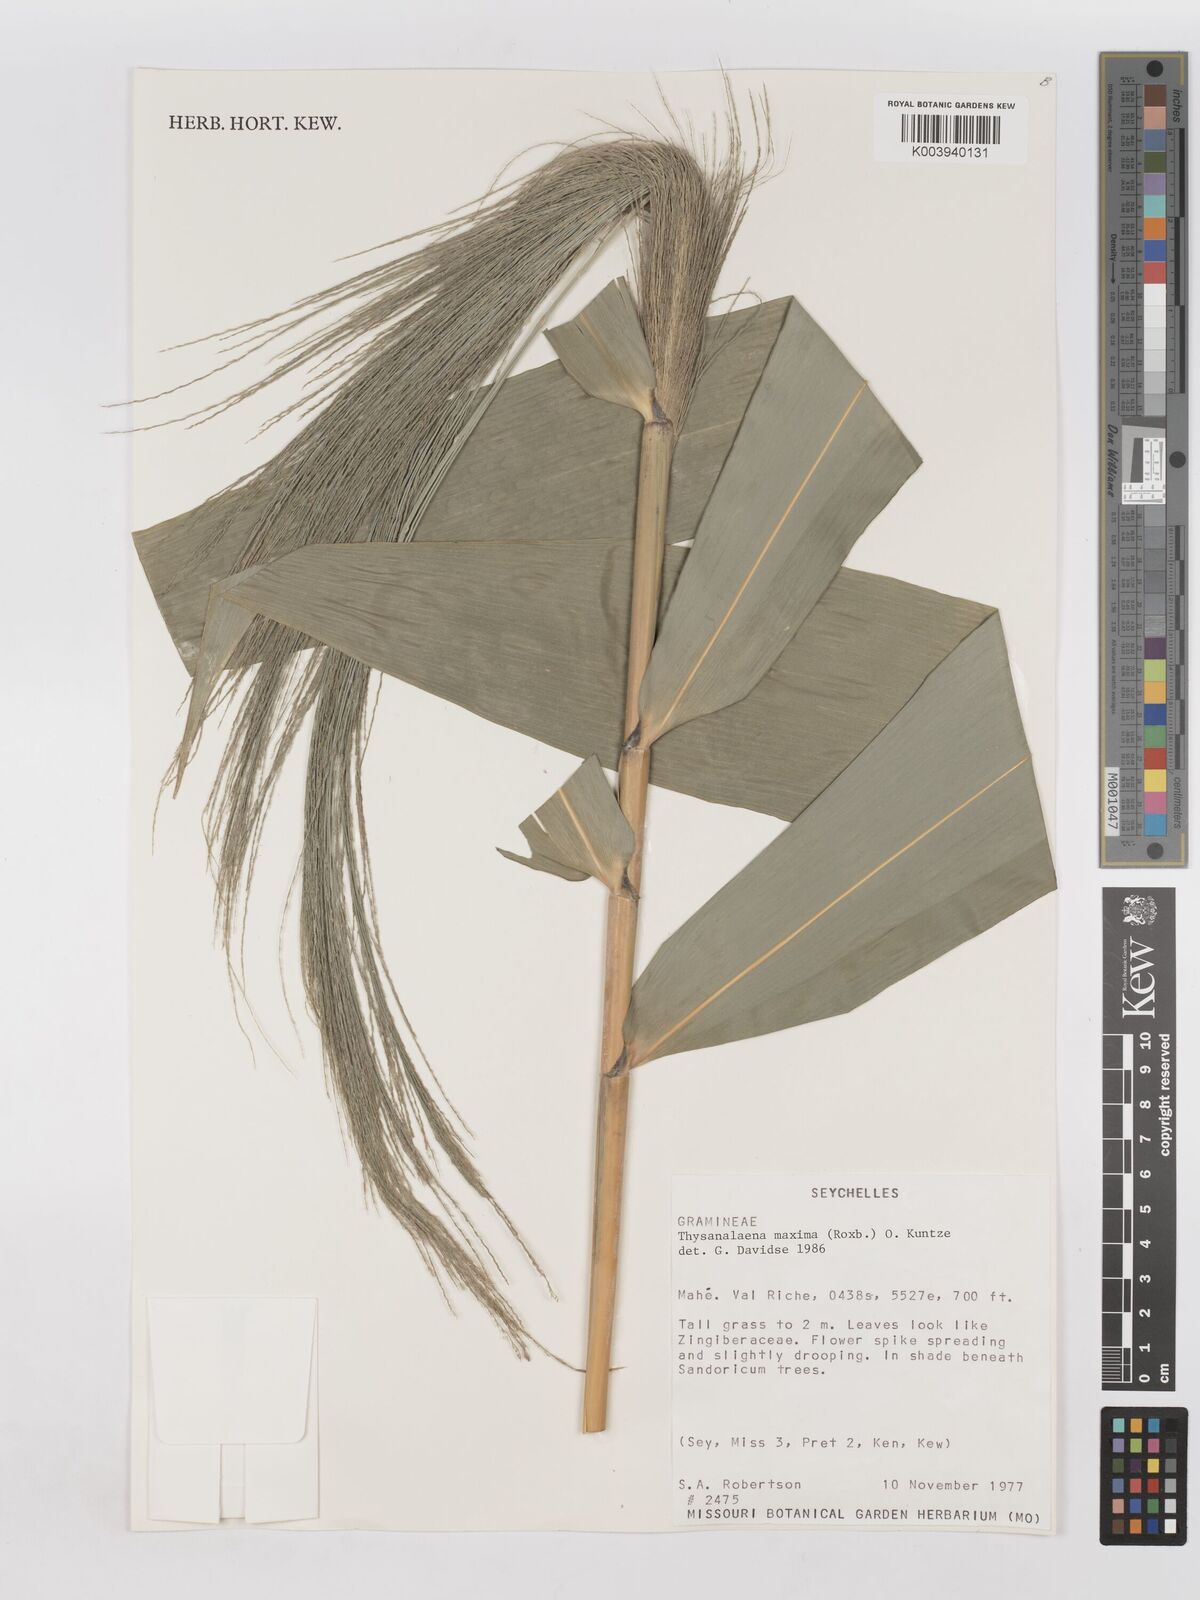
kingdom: Plantae
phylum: Tracheophyta
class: Liliopsida
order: Poales
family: Poaceae
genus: Thysanolaena
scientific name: Thysanolaena latifolia
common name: Tiger grass
